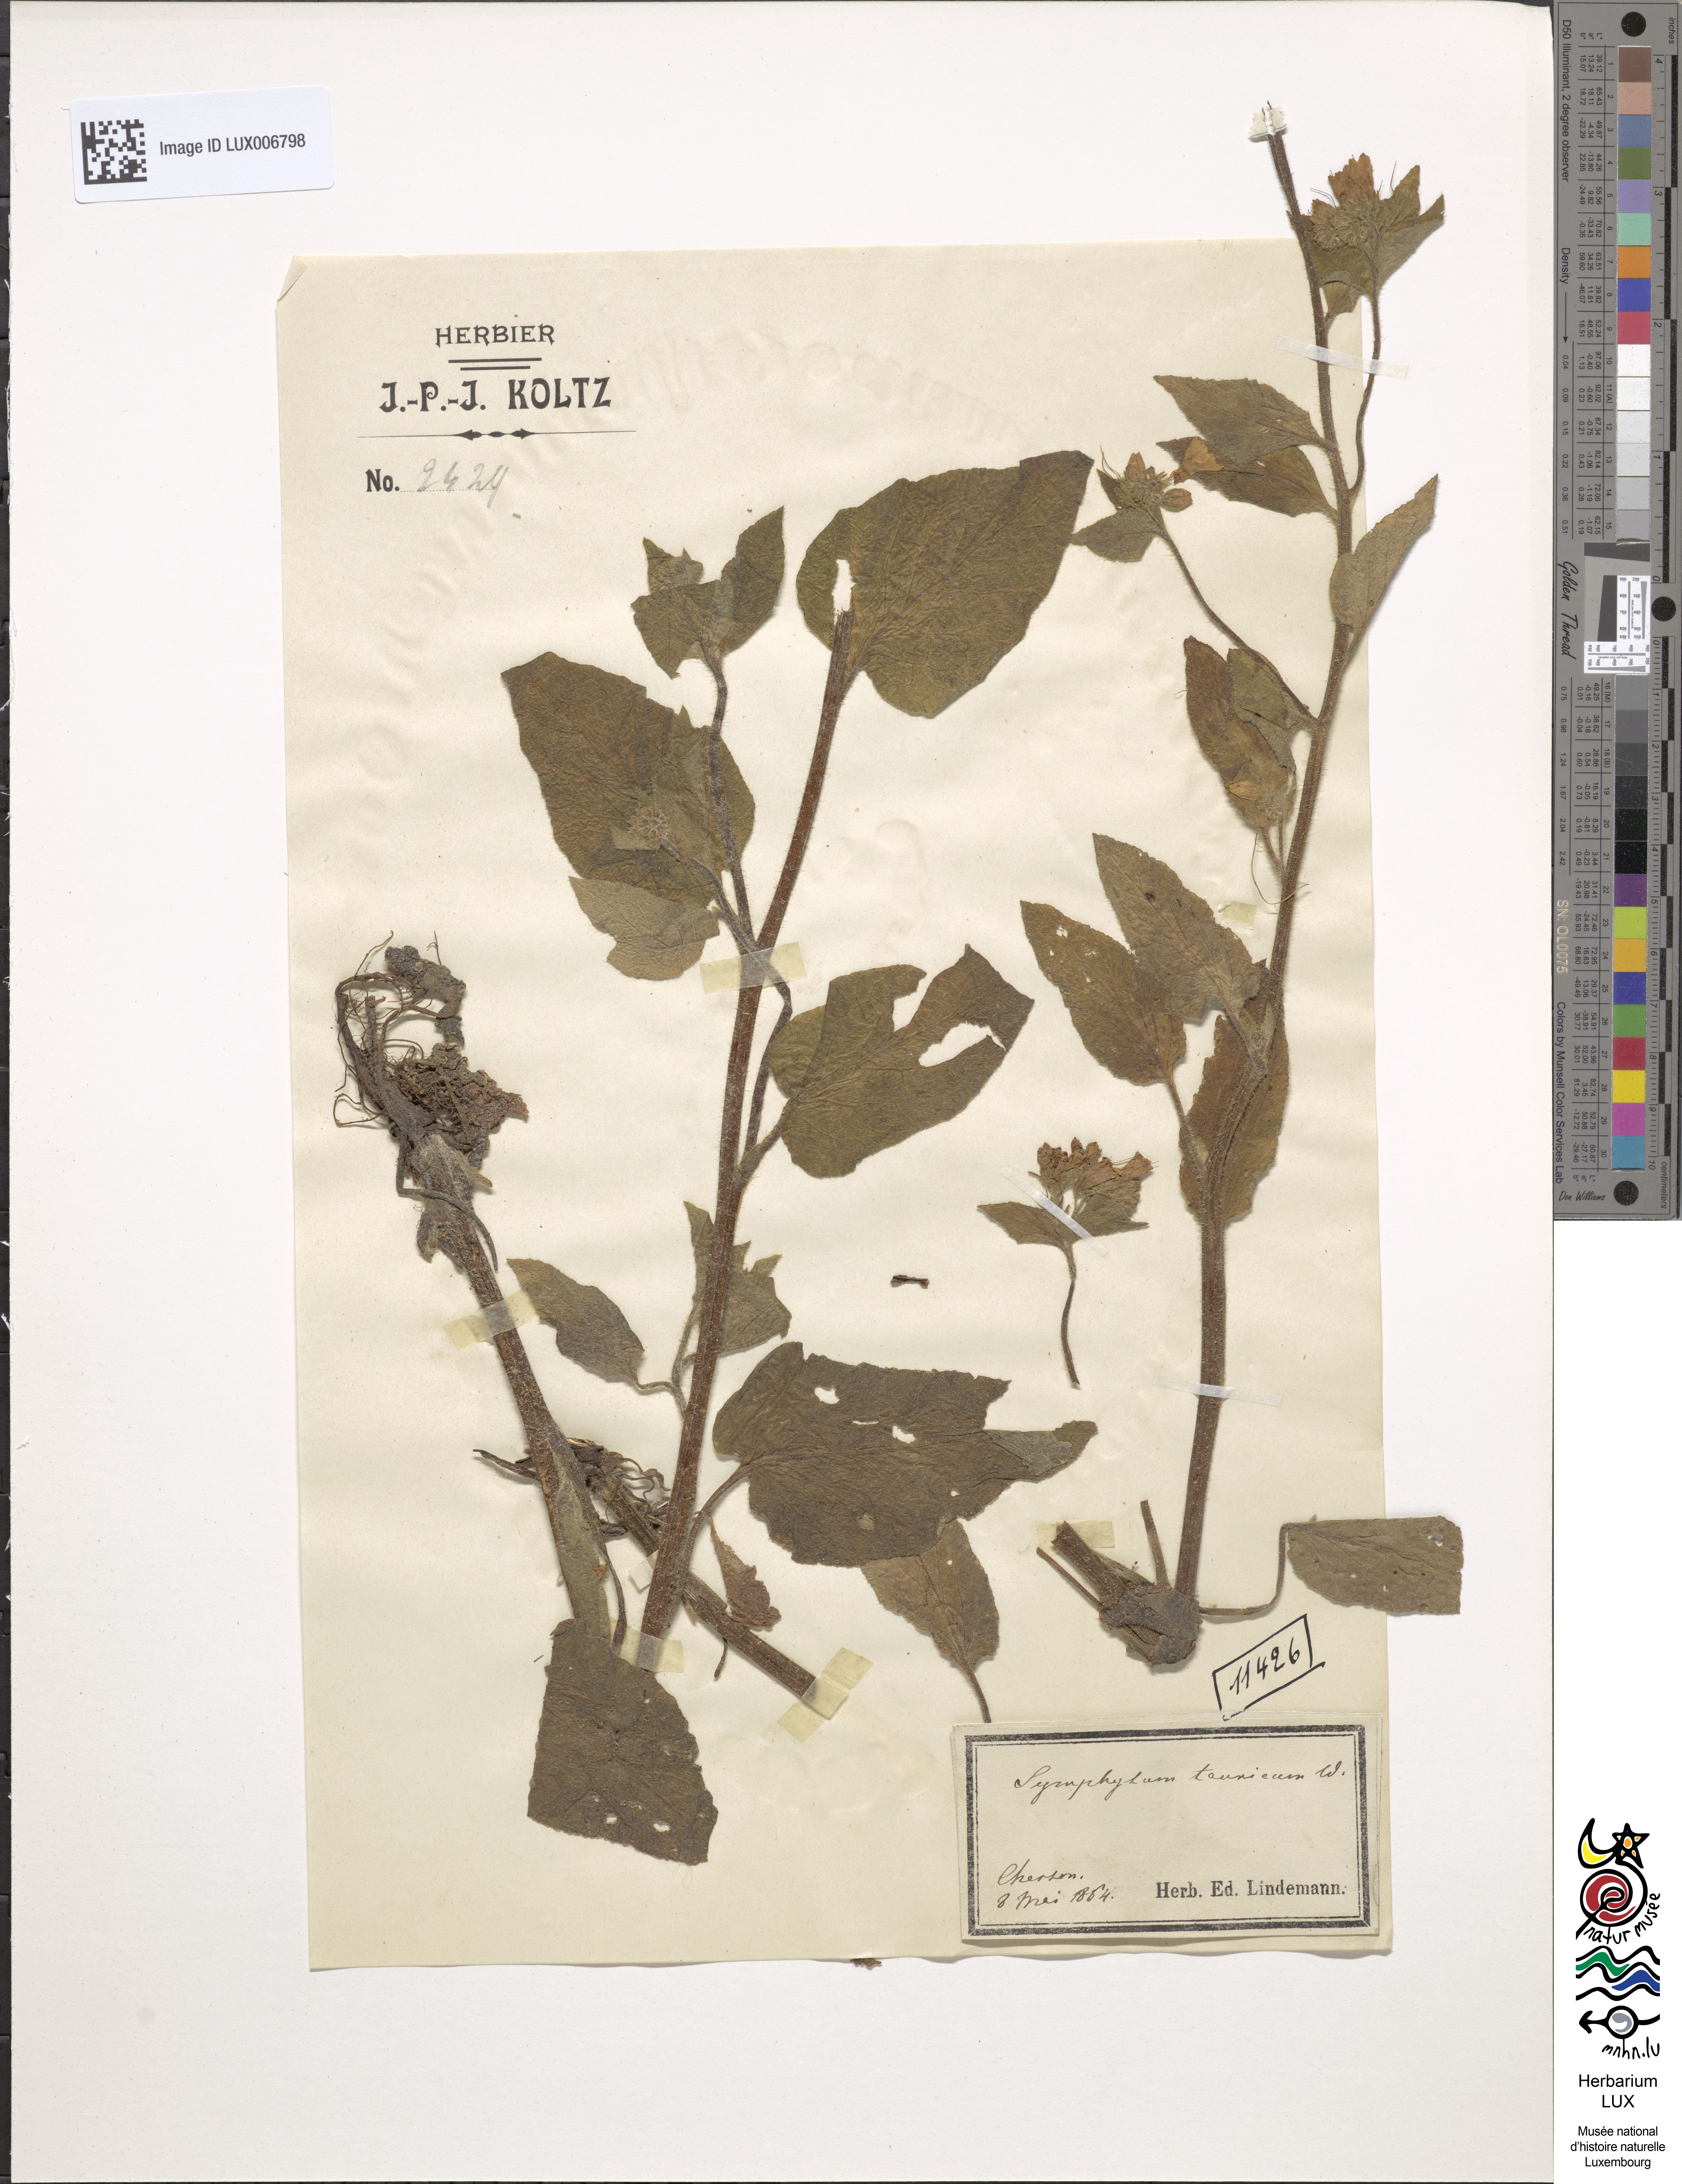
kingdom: Plantae
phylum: Tracheophyta
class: Magnoliopsida
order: Boraginales
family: Boraginaceae
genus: Symphytum
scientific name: Symphytum tauricum
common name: Crimean comfrey
